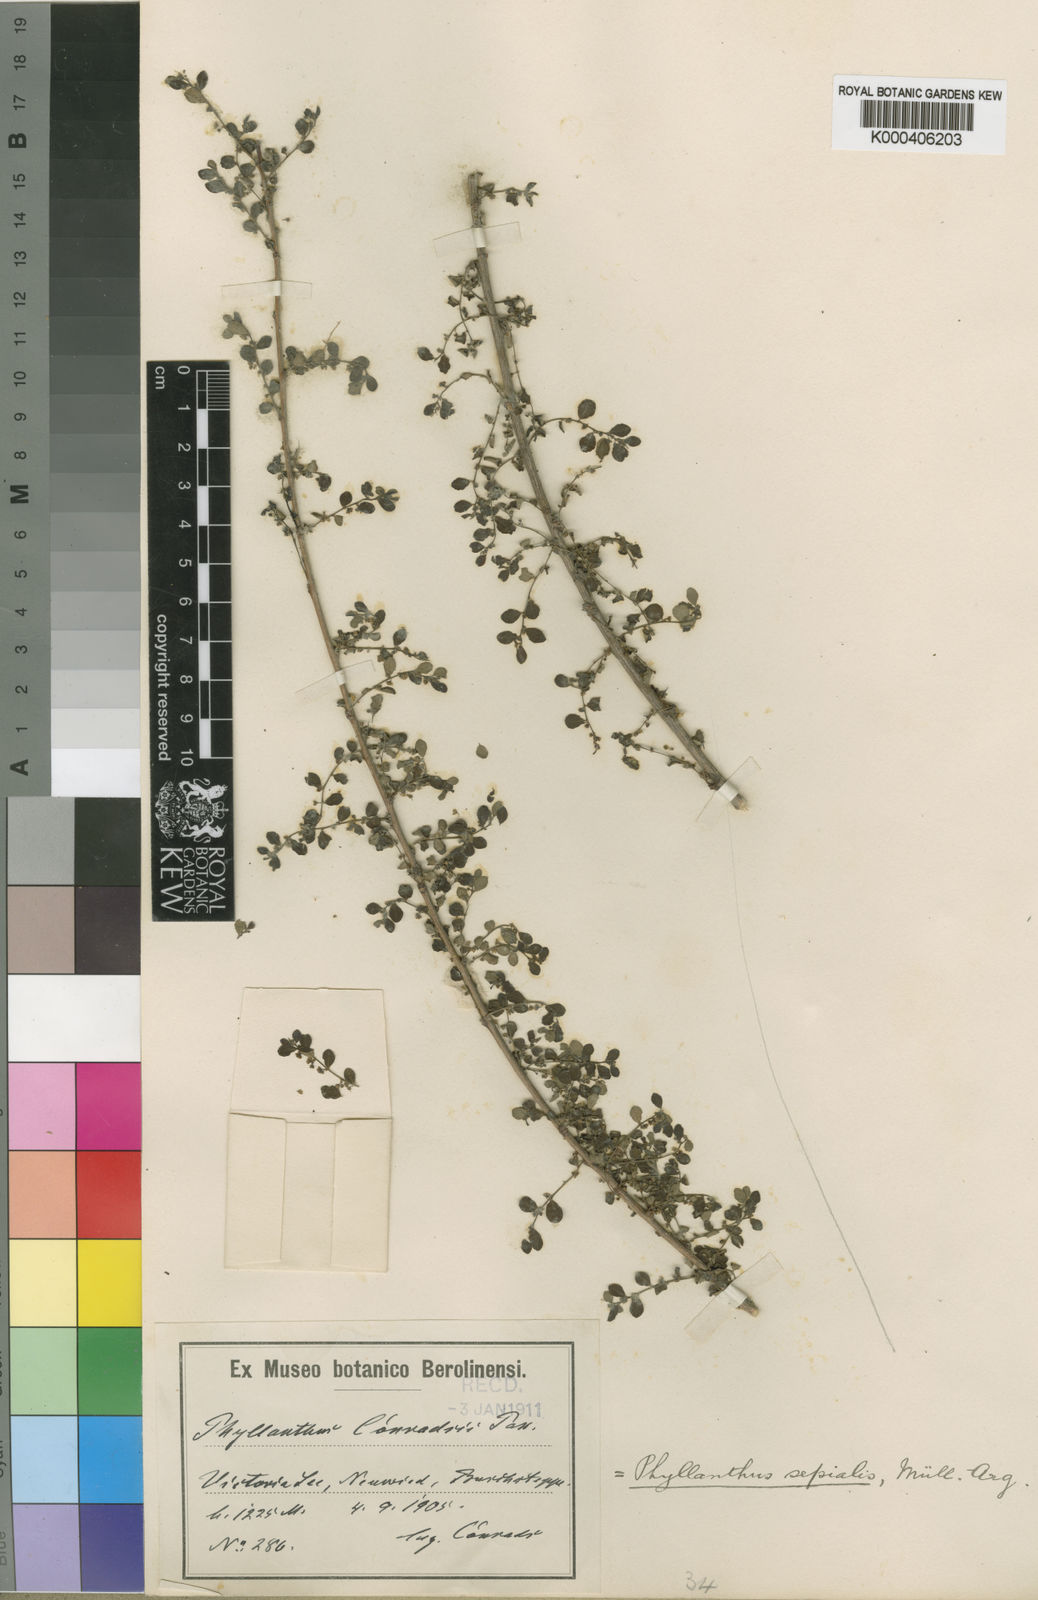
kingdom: Plantae
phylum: Tracheophyta
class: Magnoliopsida
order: Malpighiales
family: Phyllanthaceae
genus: Phyllanthus
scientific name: Phyllanthus
